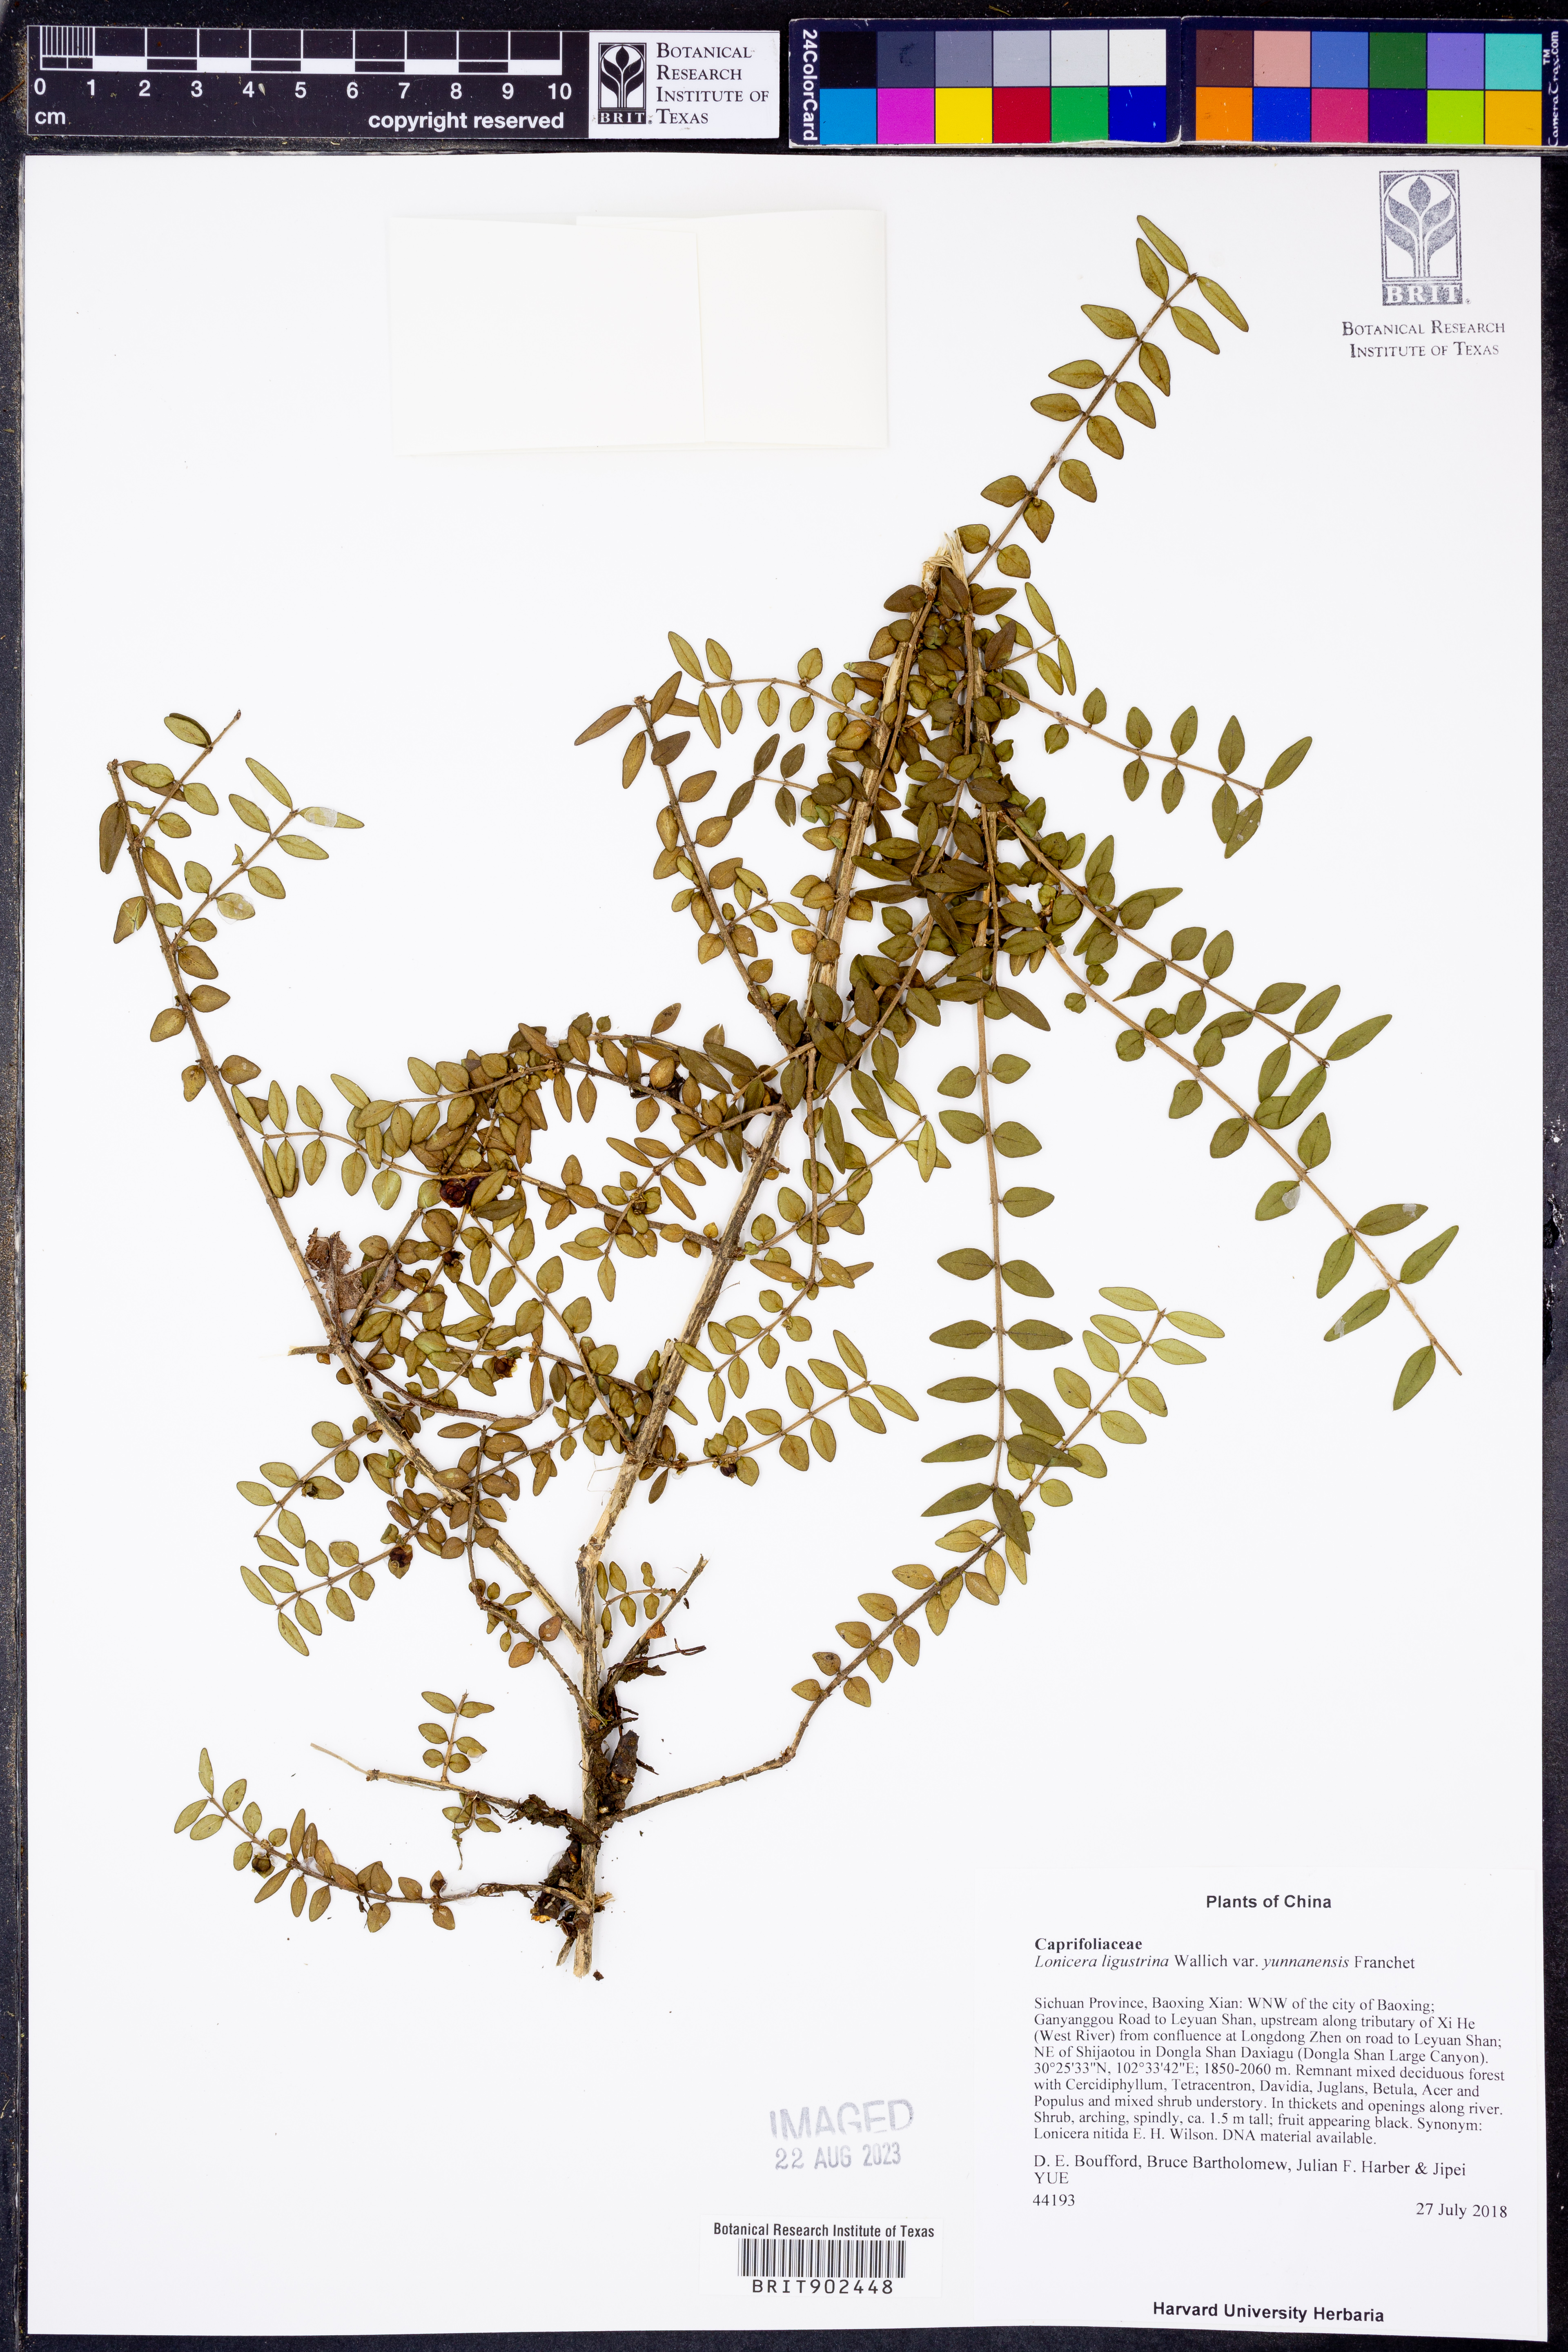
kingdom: Plantae
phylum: Tracheophyta
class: Magnoliopsida
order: Dipsacales
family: Caprifoliaceae
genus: Lonicera
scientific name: Lonicera pileata
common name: Box-leaved honeysuckle
